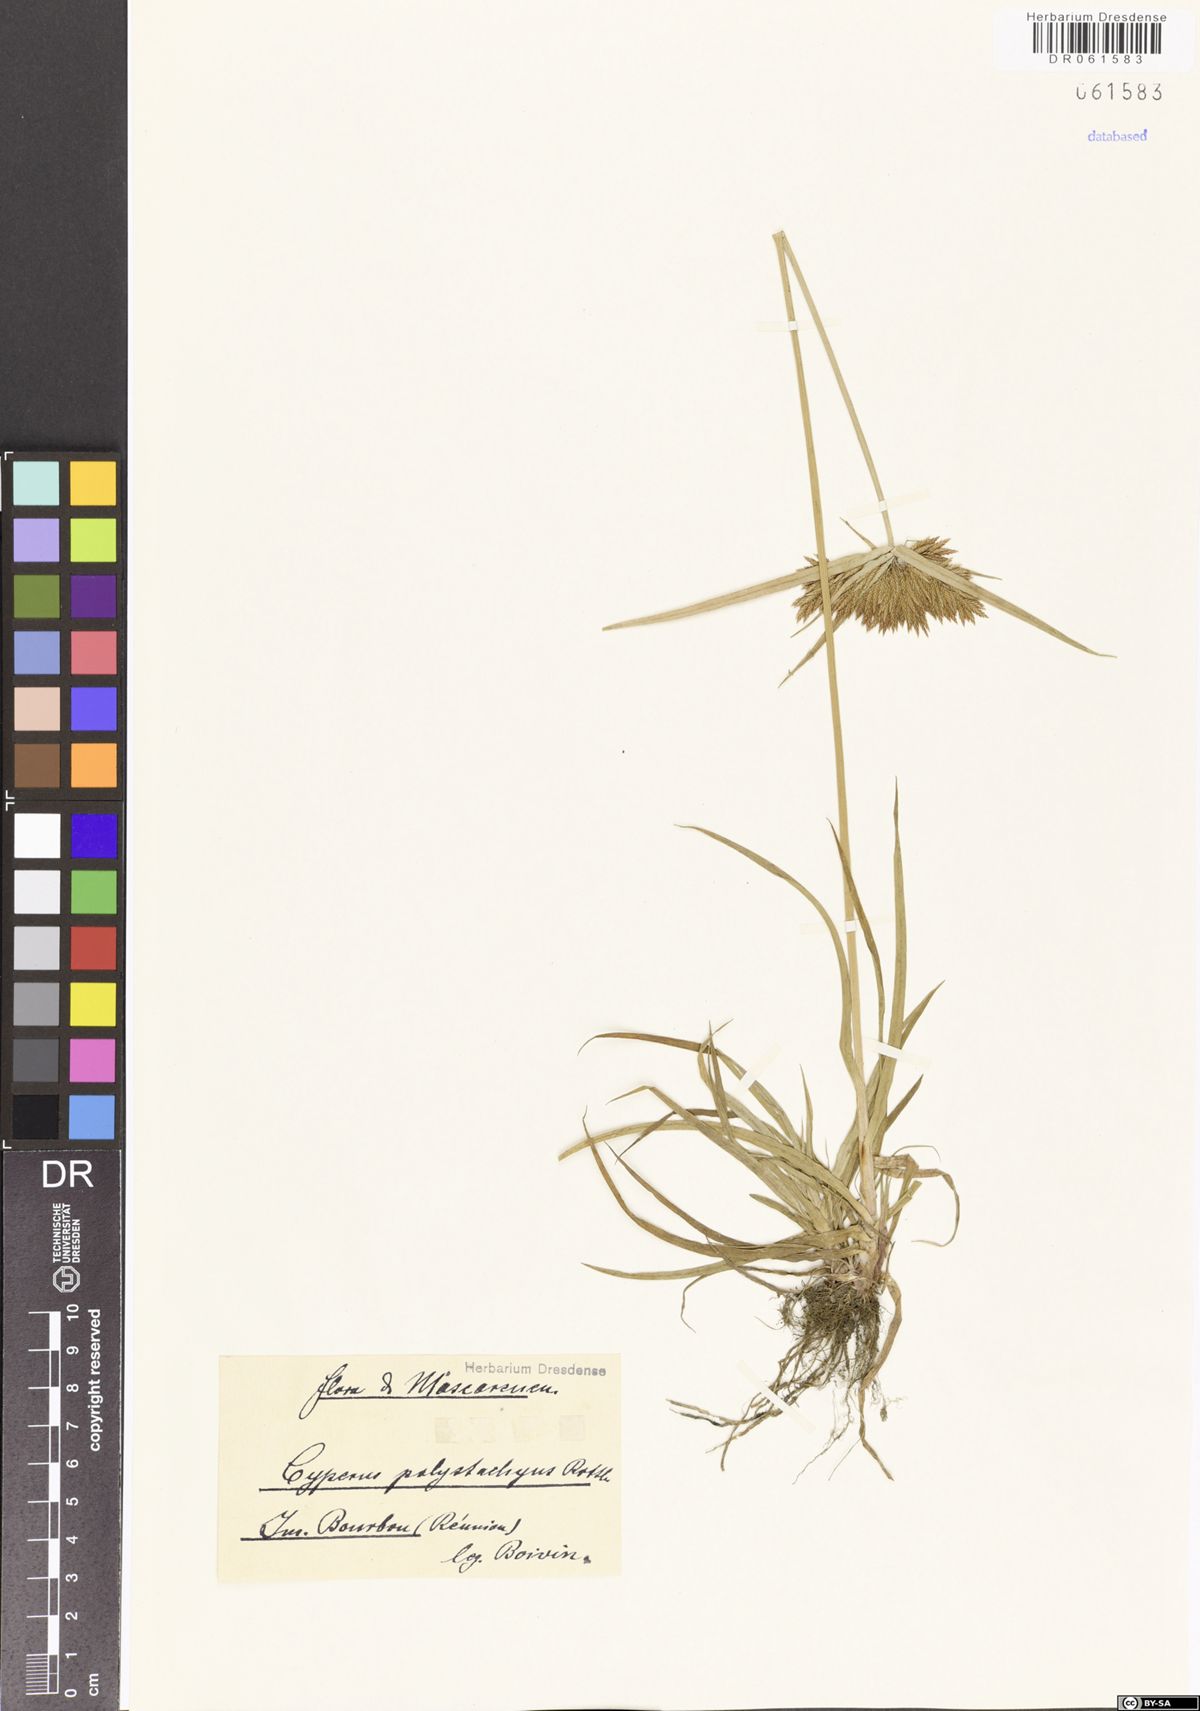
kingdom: Plantae
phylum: Tracheophyta
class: Liliopsida
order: Poales
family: Cyperaceae
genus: Cyperus
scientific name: Cyperus polystachyos
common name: Bunchy flat sedge
